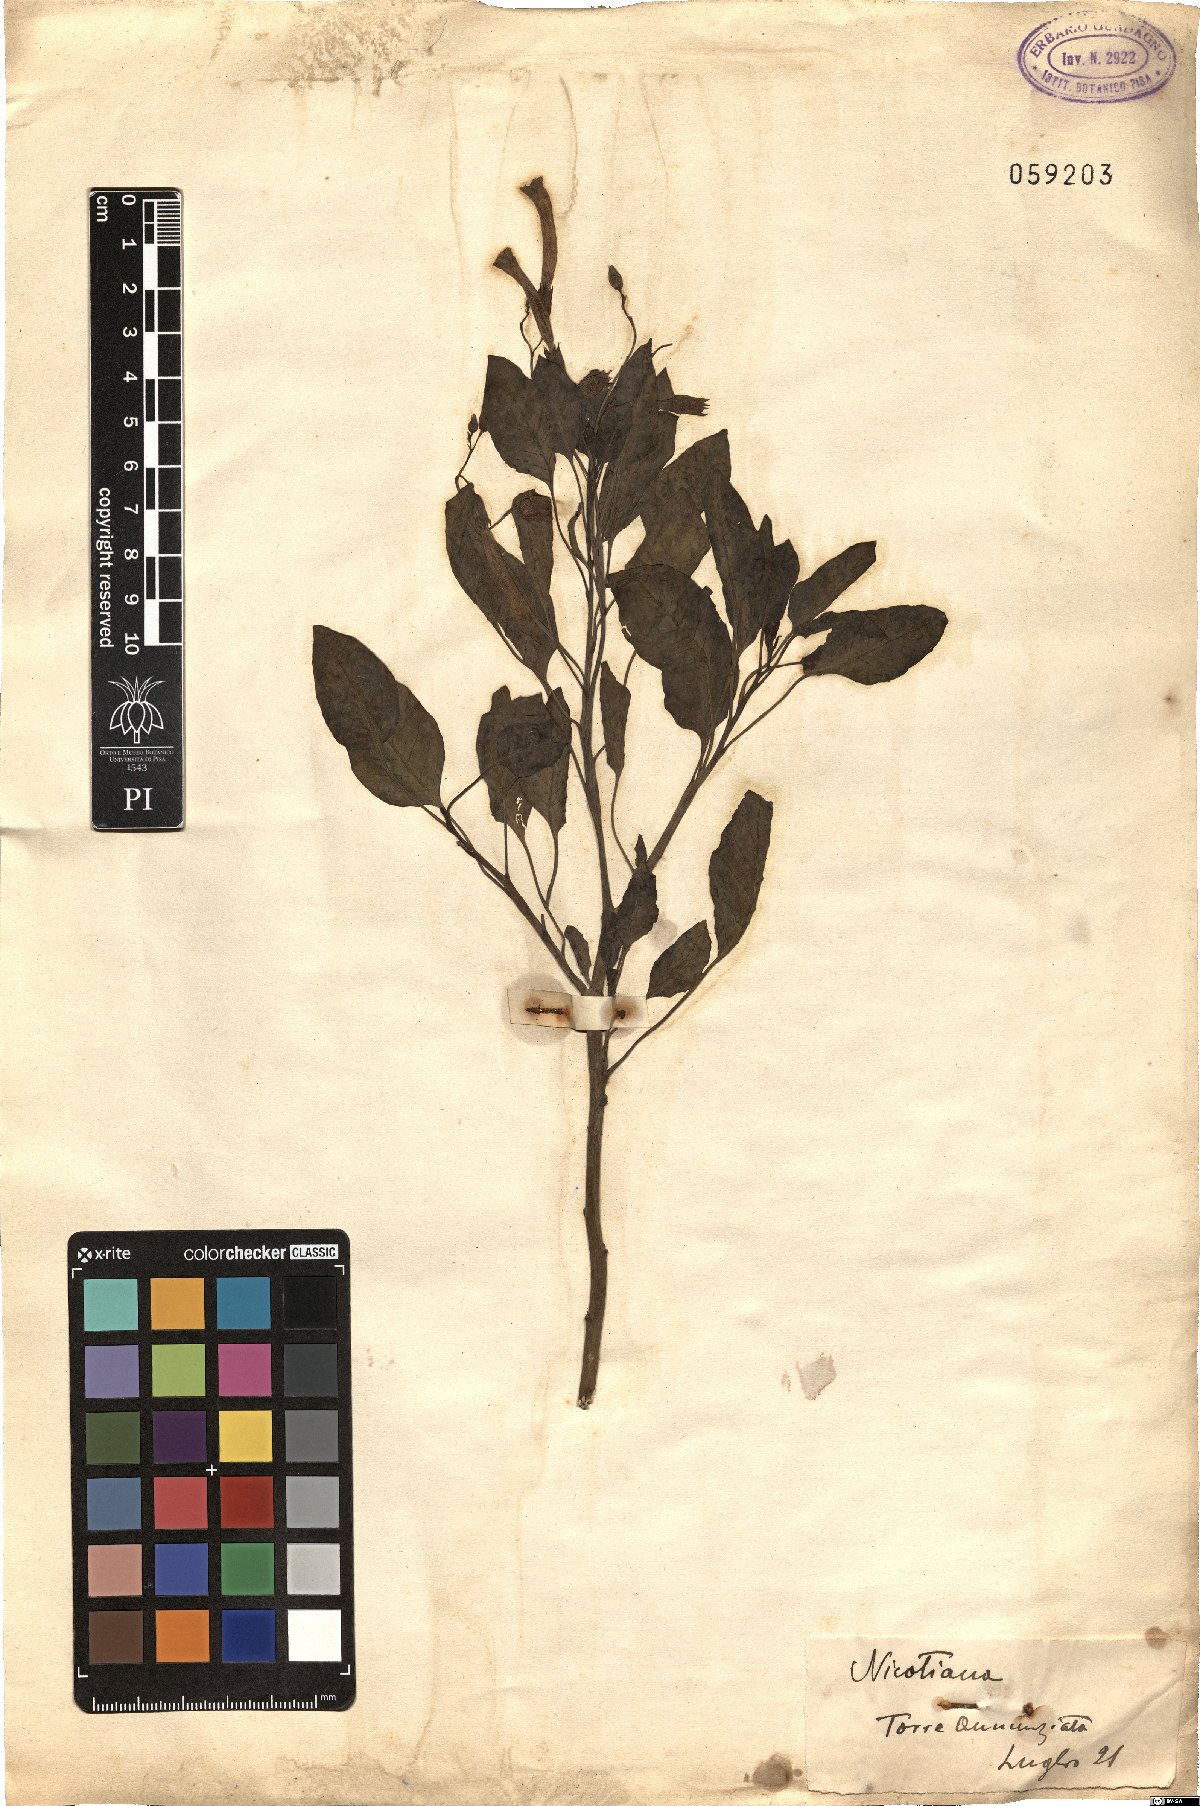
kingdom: Plantae
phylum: Tracheophyta
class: Magnoliopsida
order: Solanales
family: Solanaceae
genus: Nicotiana
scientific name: Nicotiana
